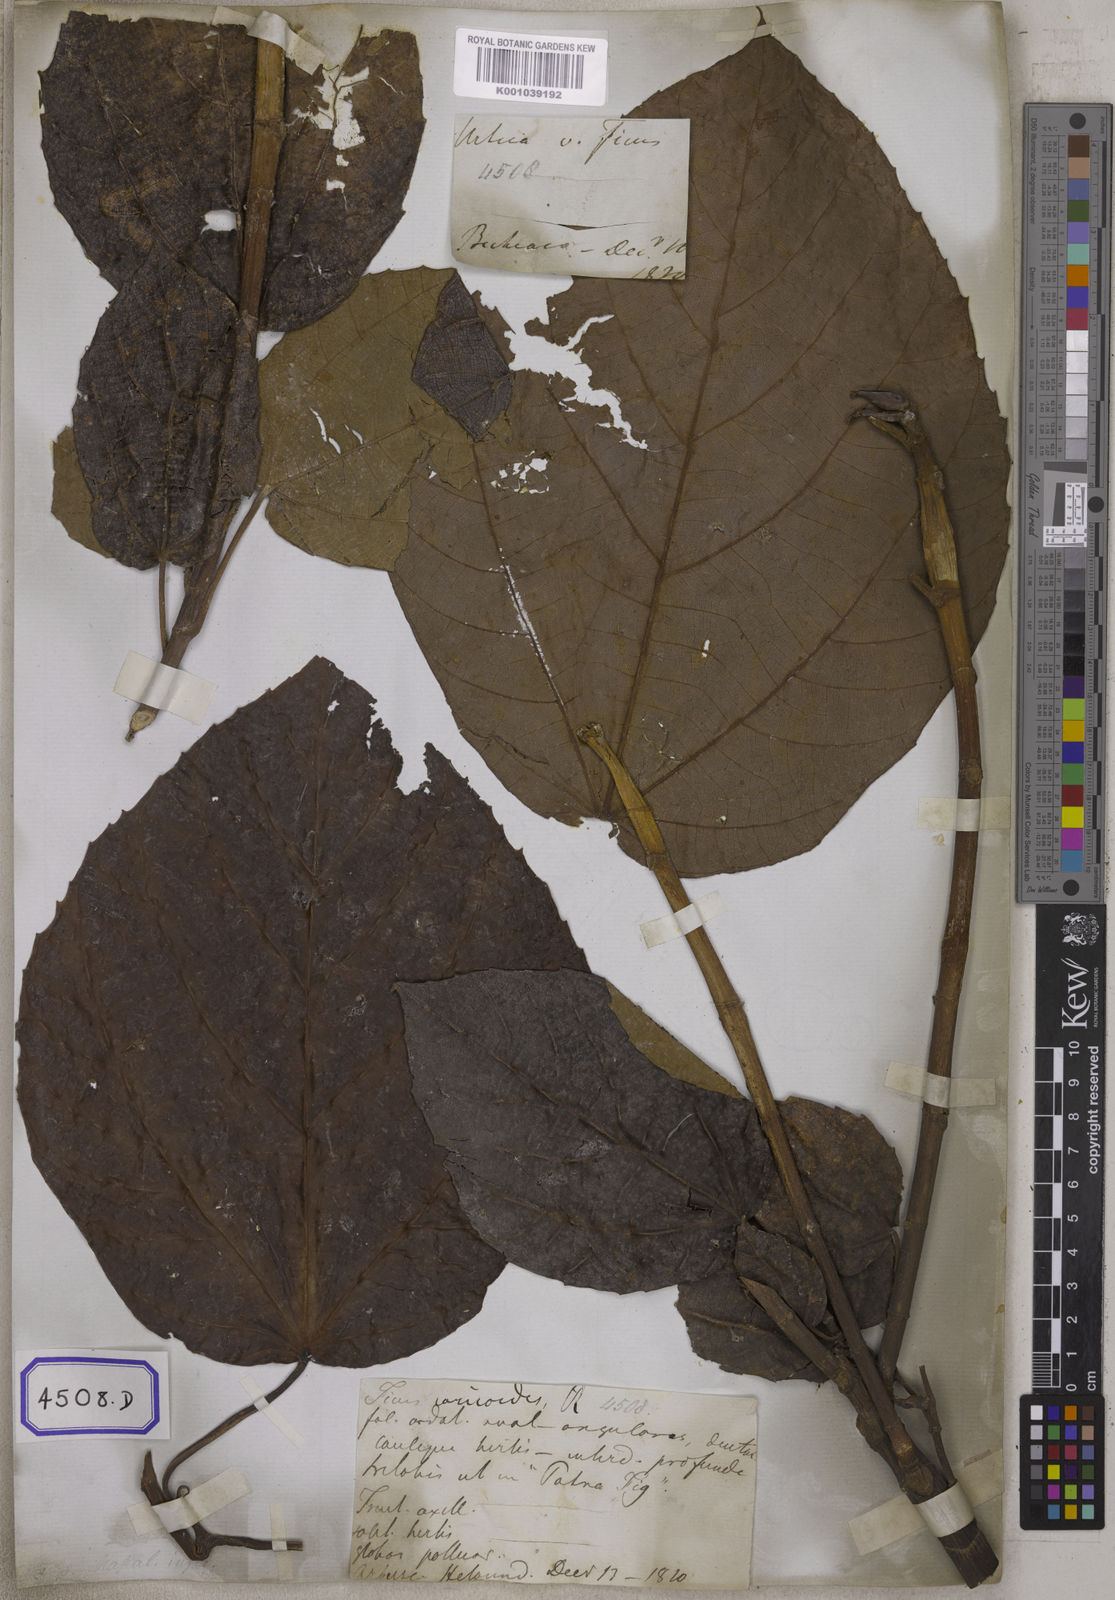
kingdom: Plantae
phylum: Tracheophyta
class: Magnoliopsida
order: Rosales
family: Moraceae
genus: Ficus
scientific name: Ficus
